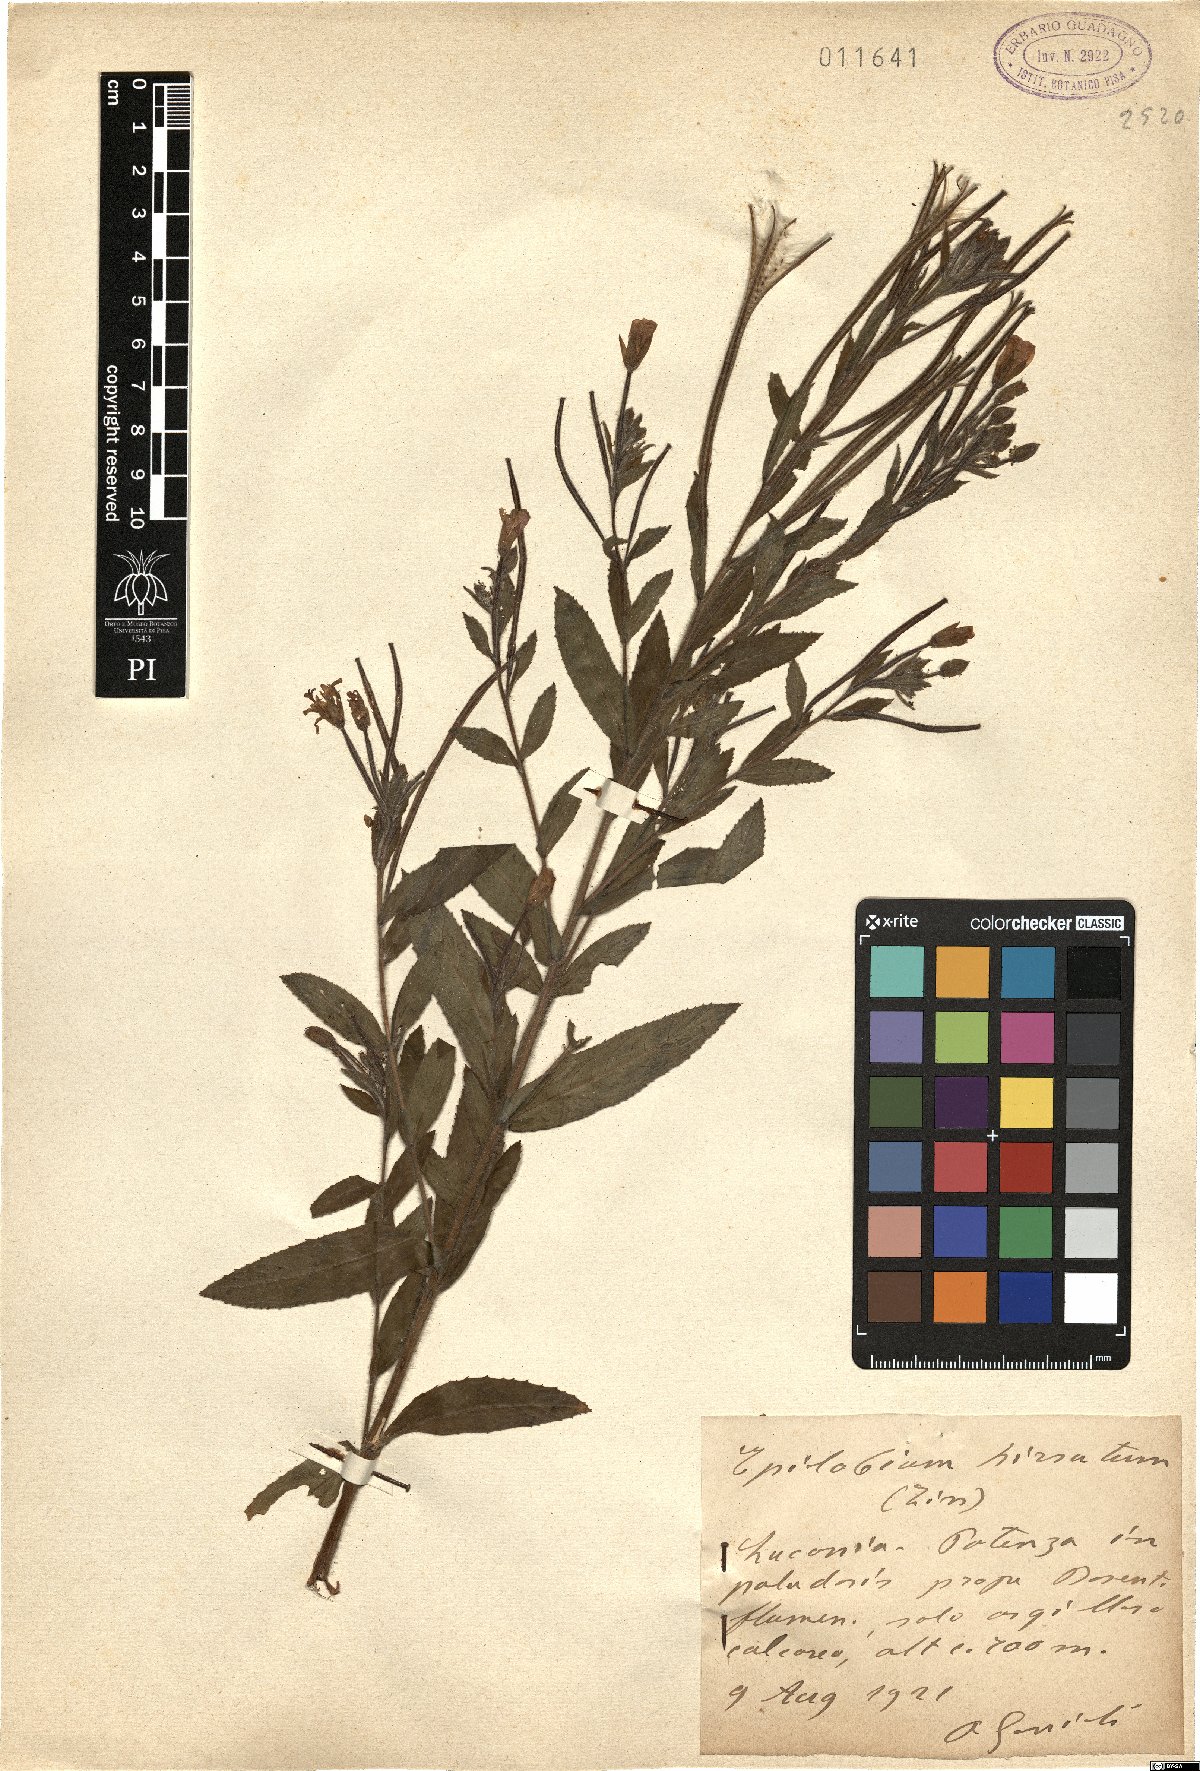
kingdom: Plantae
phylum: Tracheophyta
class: Magnoliopsida
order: Myrtales
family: Onagraceae
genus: Epilobium
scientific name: Epilobium hirsutum
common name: Great willowherb
